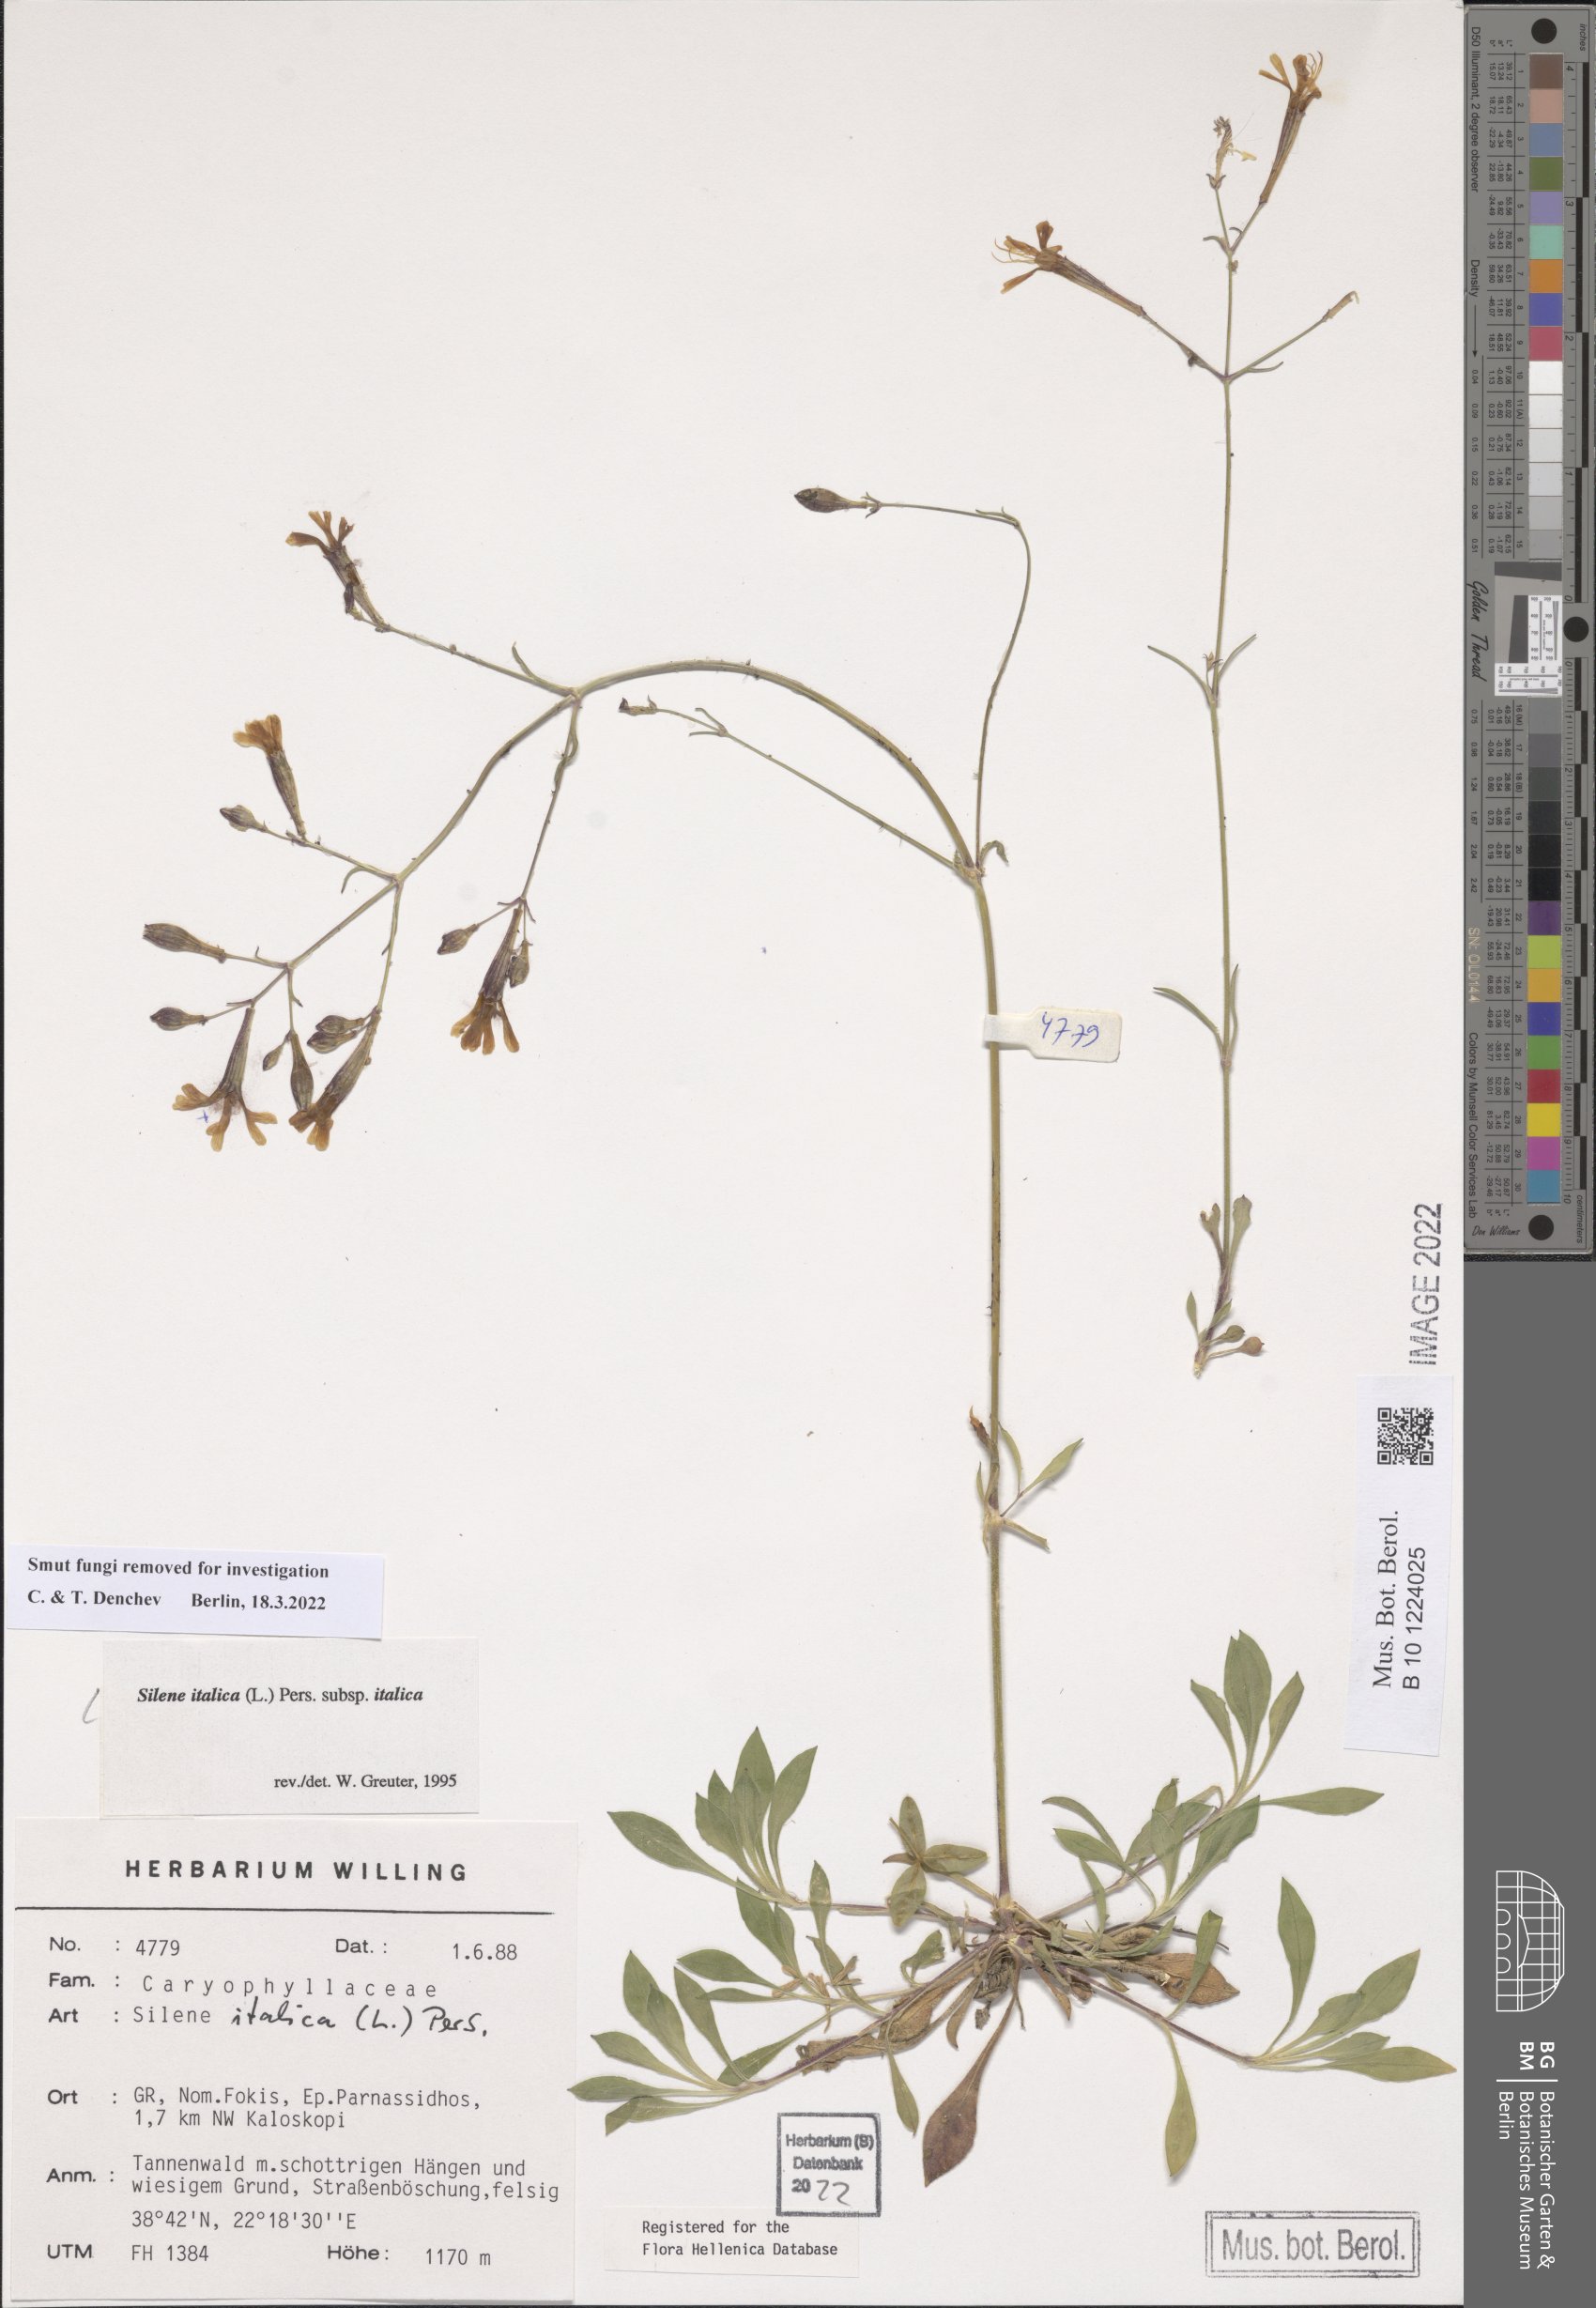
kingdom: Plantae
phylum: Tracheophyta
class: Magnoliopsida
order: Caryophyllales
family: Caryophyllaceae
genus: Silene
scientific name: Silene italica
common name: Italian catchfly
